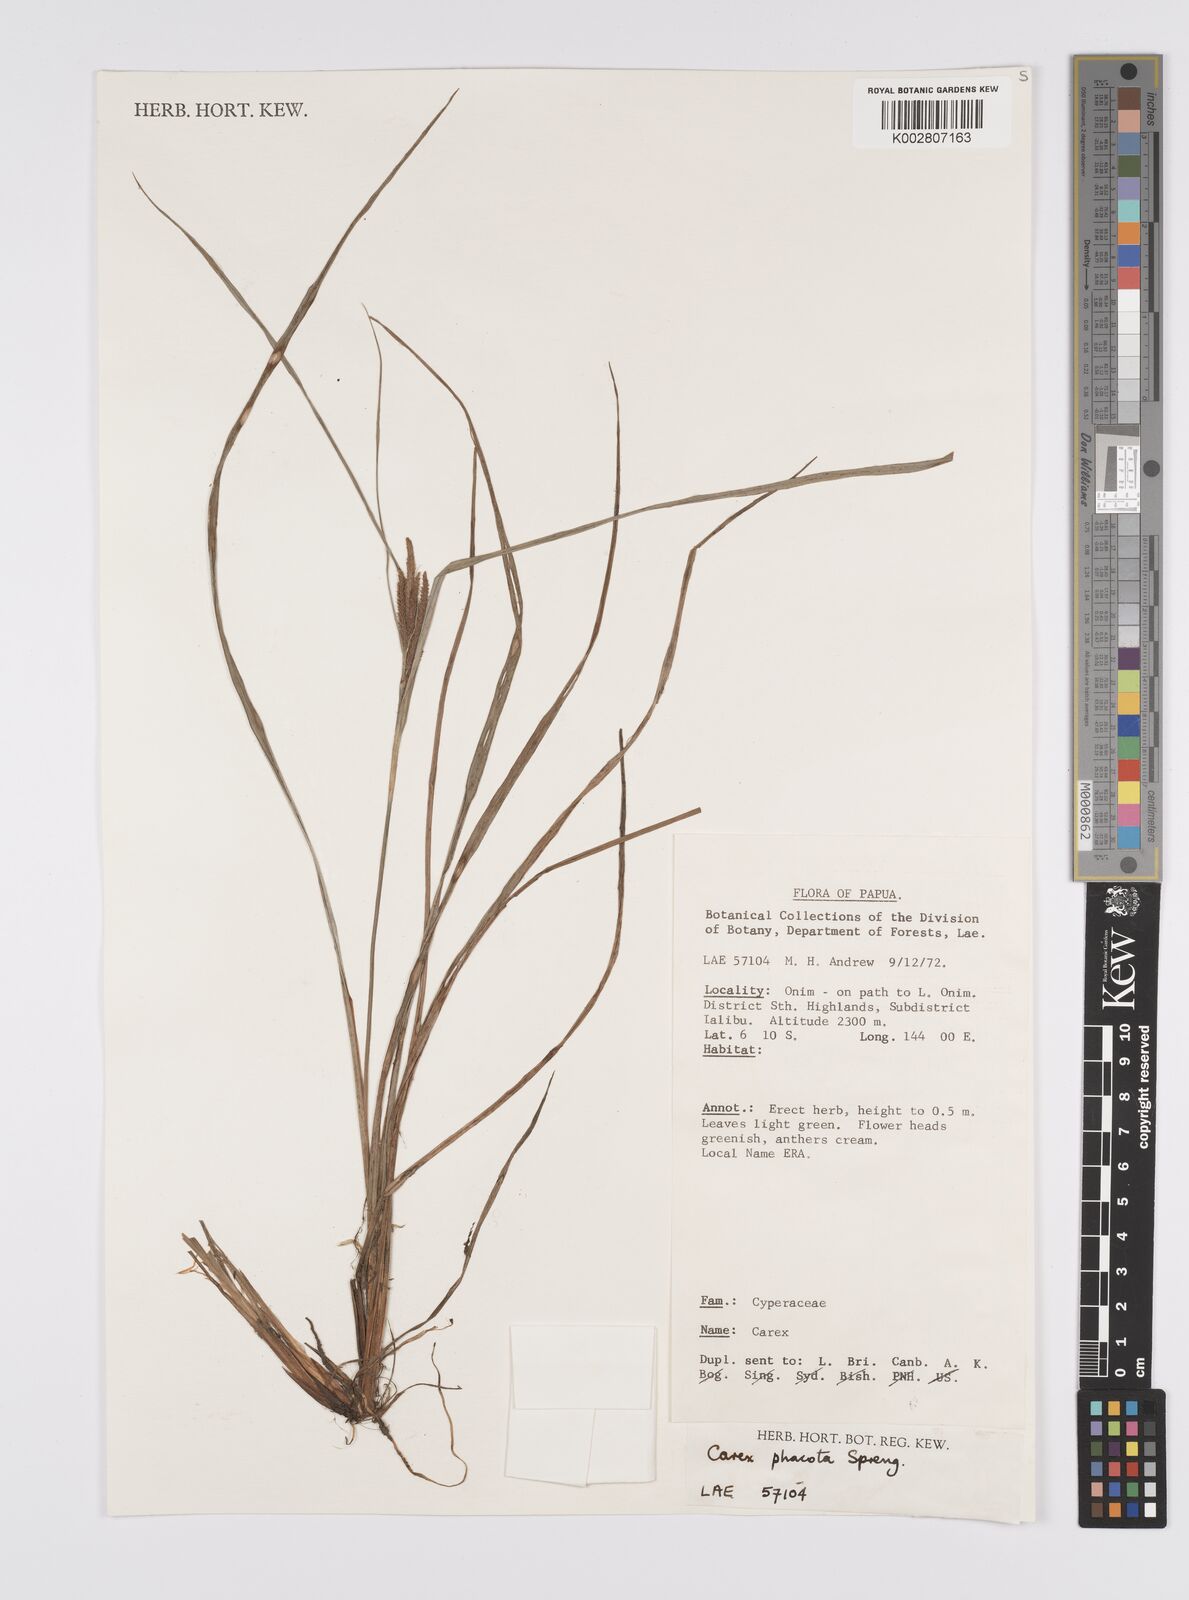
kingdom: Plantae
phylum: Tracheophyta
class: Liliopsida
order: Poales
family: Cyperaceae
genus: Carex
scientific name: Carex phacota
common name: Lakeshore sedge
